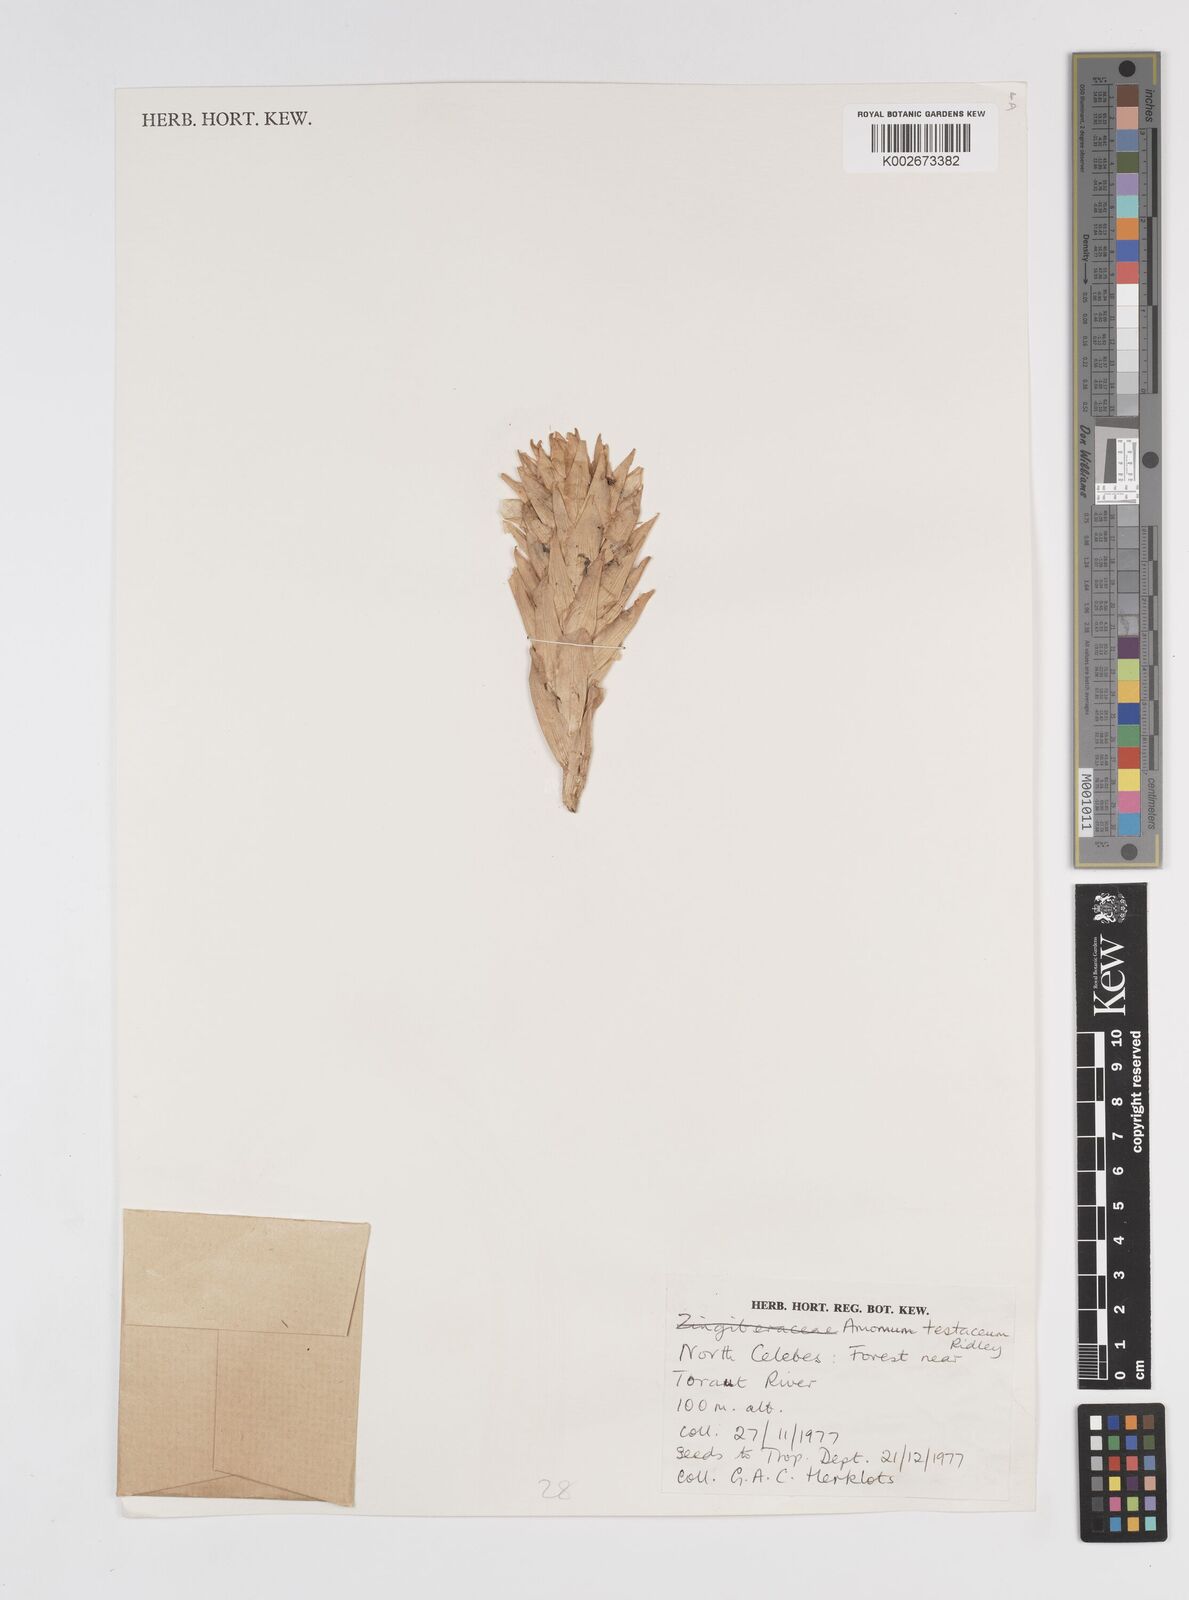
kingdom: Plantae
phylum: Tracheophyta
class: Liliopsida
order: Zingiberales
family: Zingiberaceae
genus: Wurfbainia
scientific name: Wurfbainia compacta
